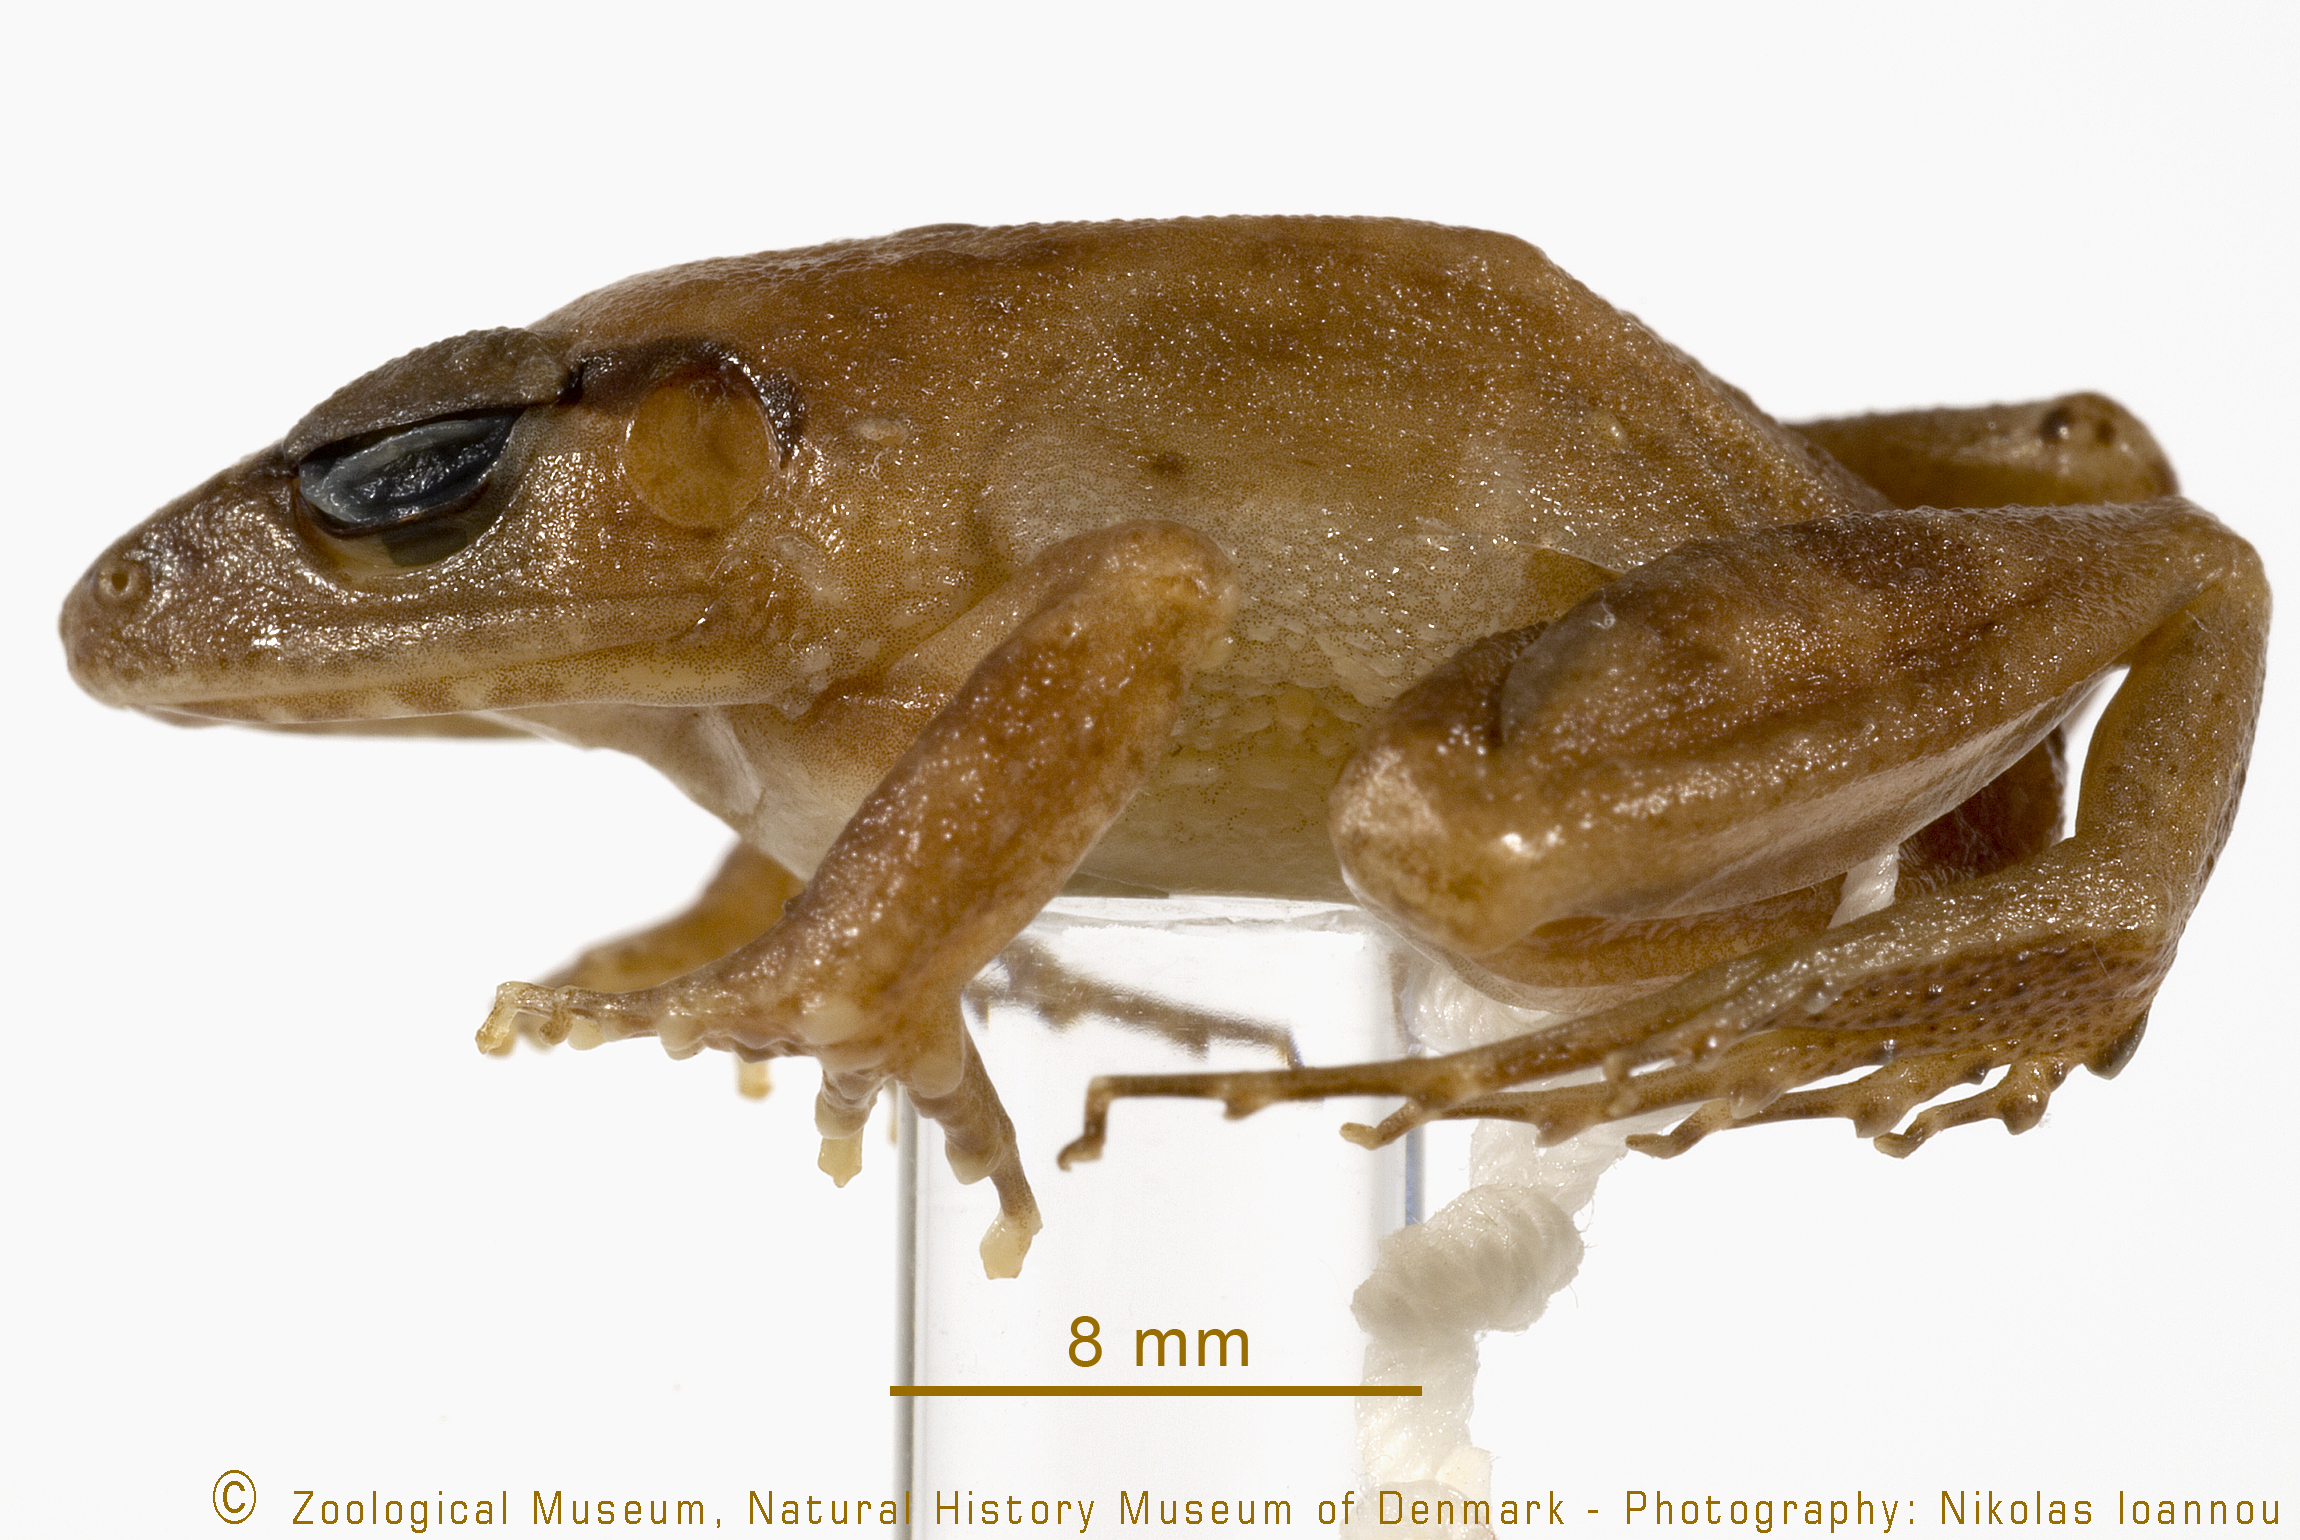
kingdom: Animalia
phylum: Chordata
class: Amphibia
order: Anura
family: Arthroleptidae
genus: Arthroleptis
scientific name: Arthroleptis affinis
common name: Ahl's squeaker
